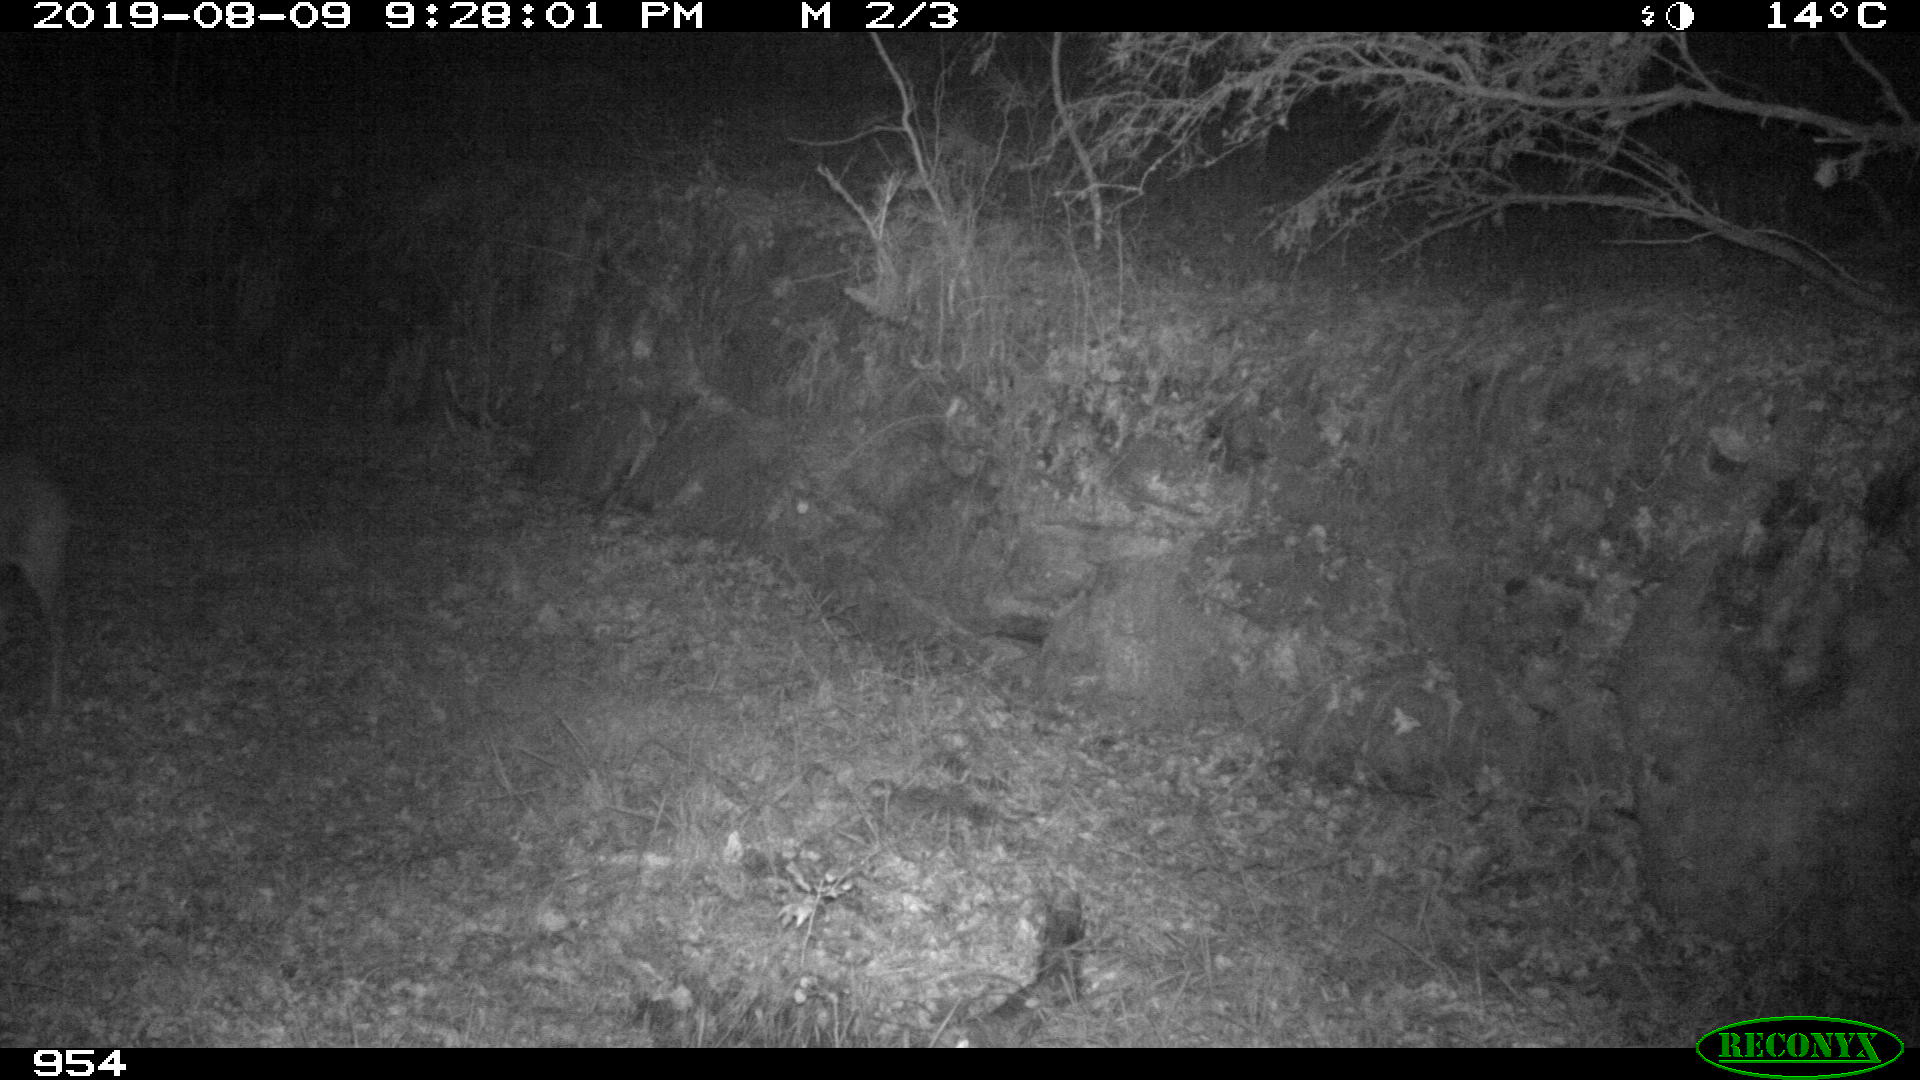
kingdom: Animalia
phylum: Chordata
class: Mammalia
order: Artiodactyla
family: Cervidae
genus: Capreolus
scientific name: Capreolus capreolus
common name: Western roe deer
